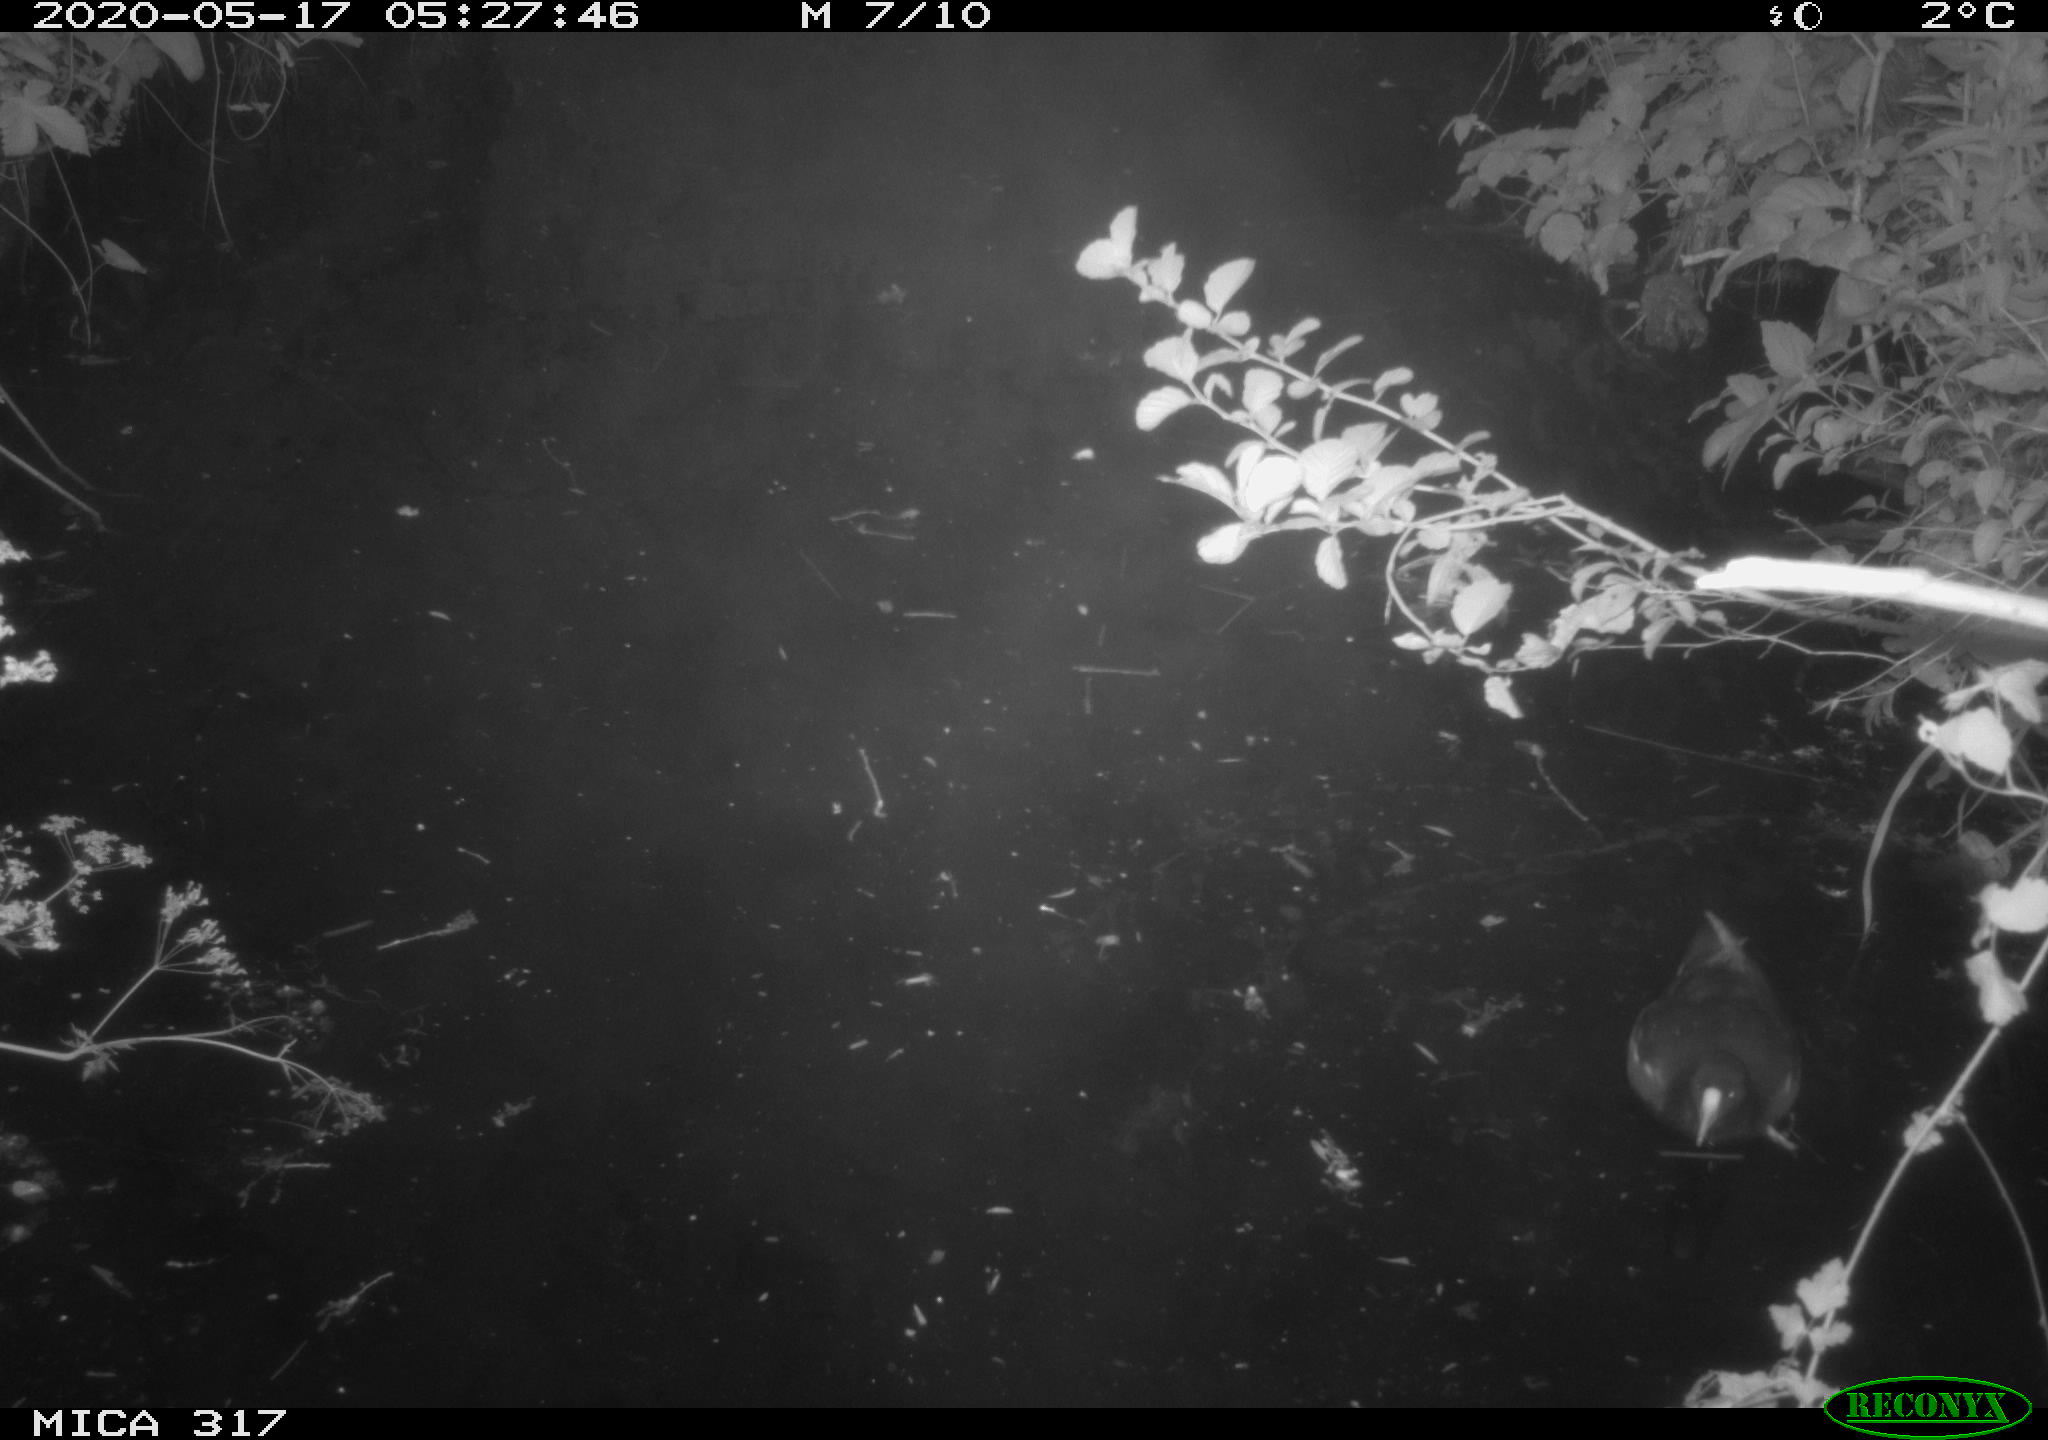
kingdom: Animalia
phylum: Chordata
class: Aves
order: Gruiformes
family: Rallidae
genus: Gallinula
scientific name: Gallinula chloropus
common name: Common moorhen
